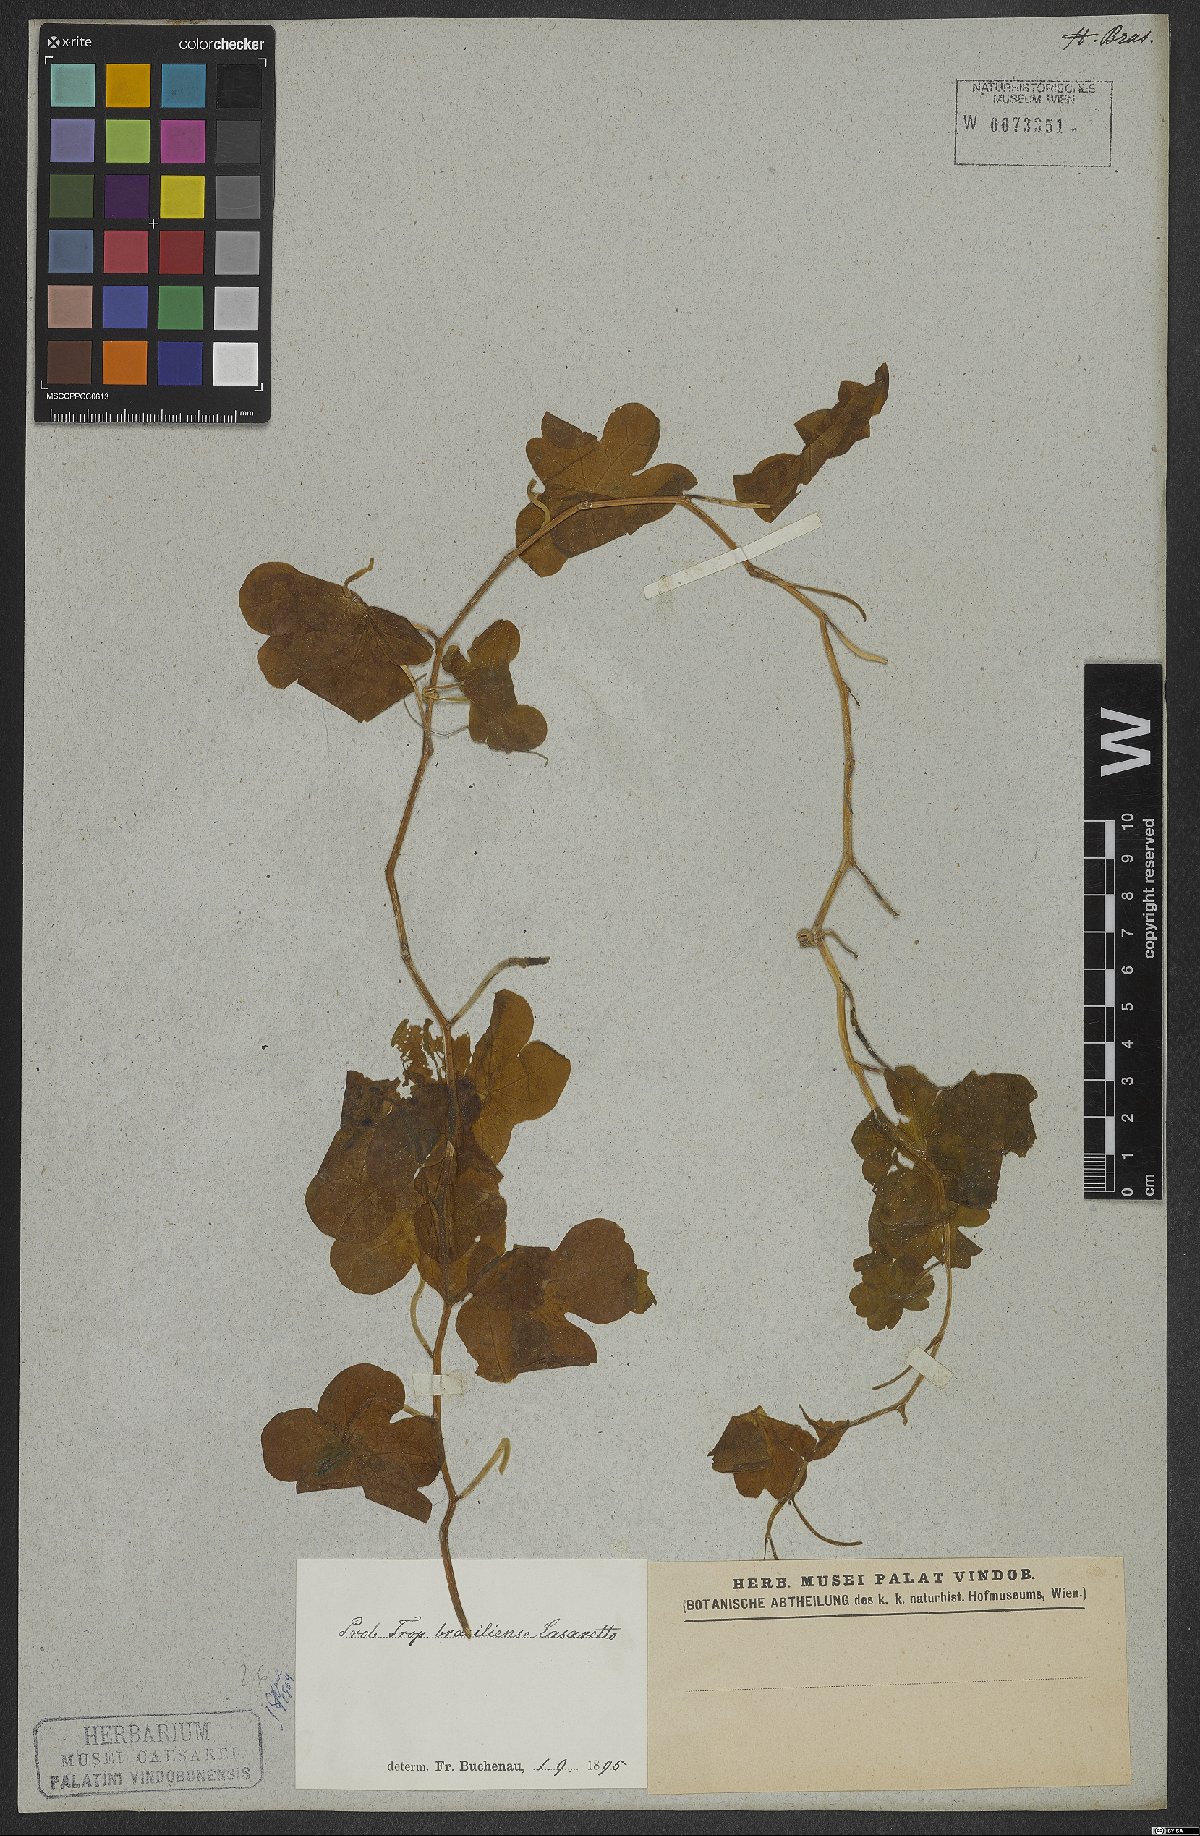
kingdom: Plantae
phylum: Tracheophyta
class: Magnoliopsida
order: Brassicales
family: Tropaeolaceae
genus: Tropaeolum
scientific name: Tropaeolum brasiliense
